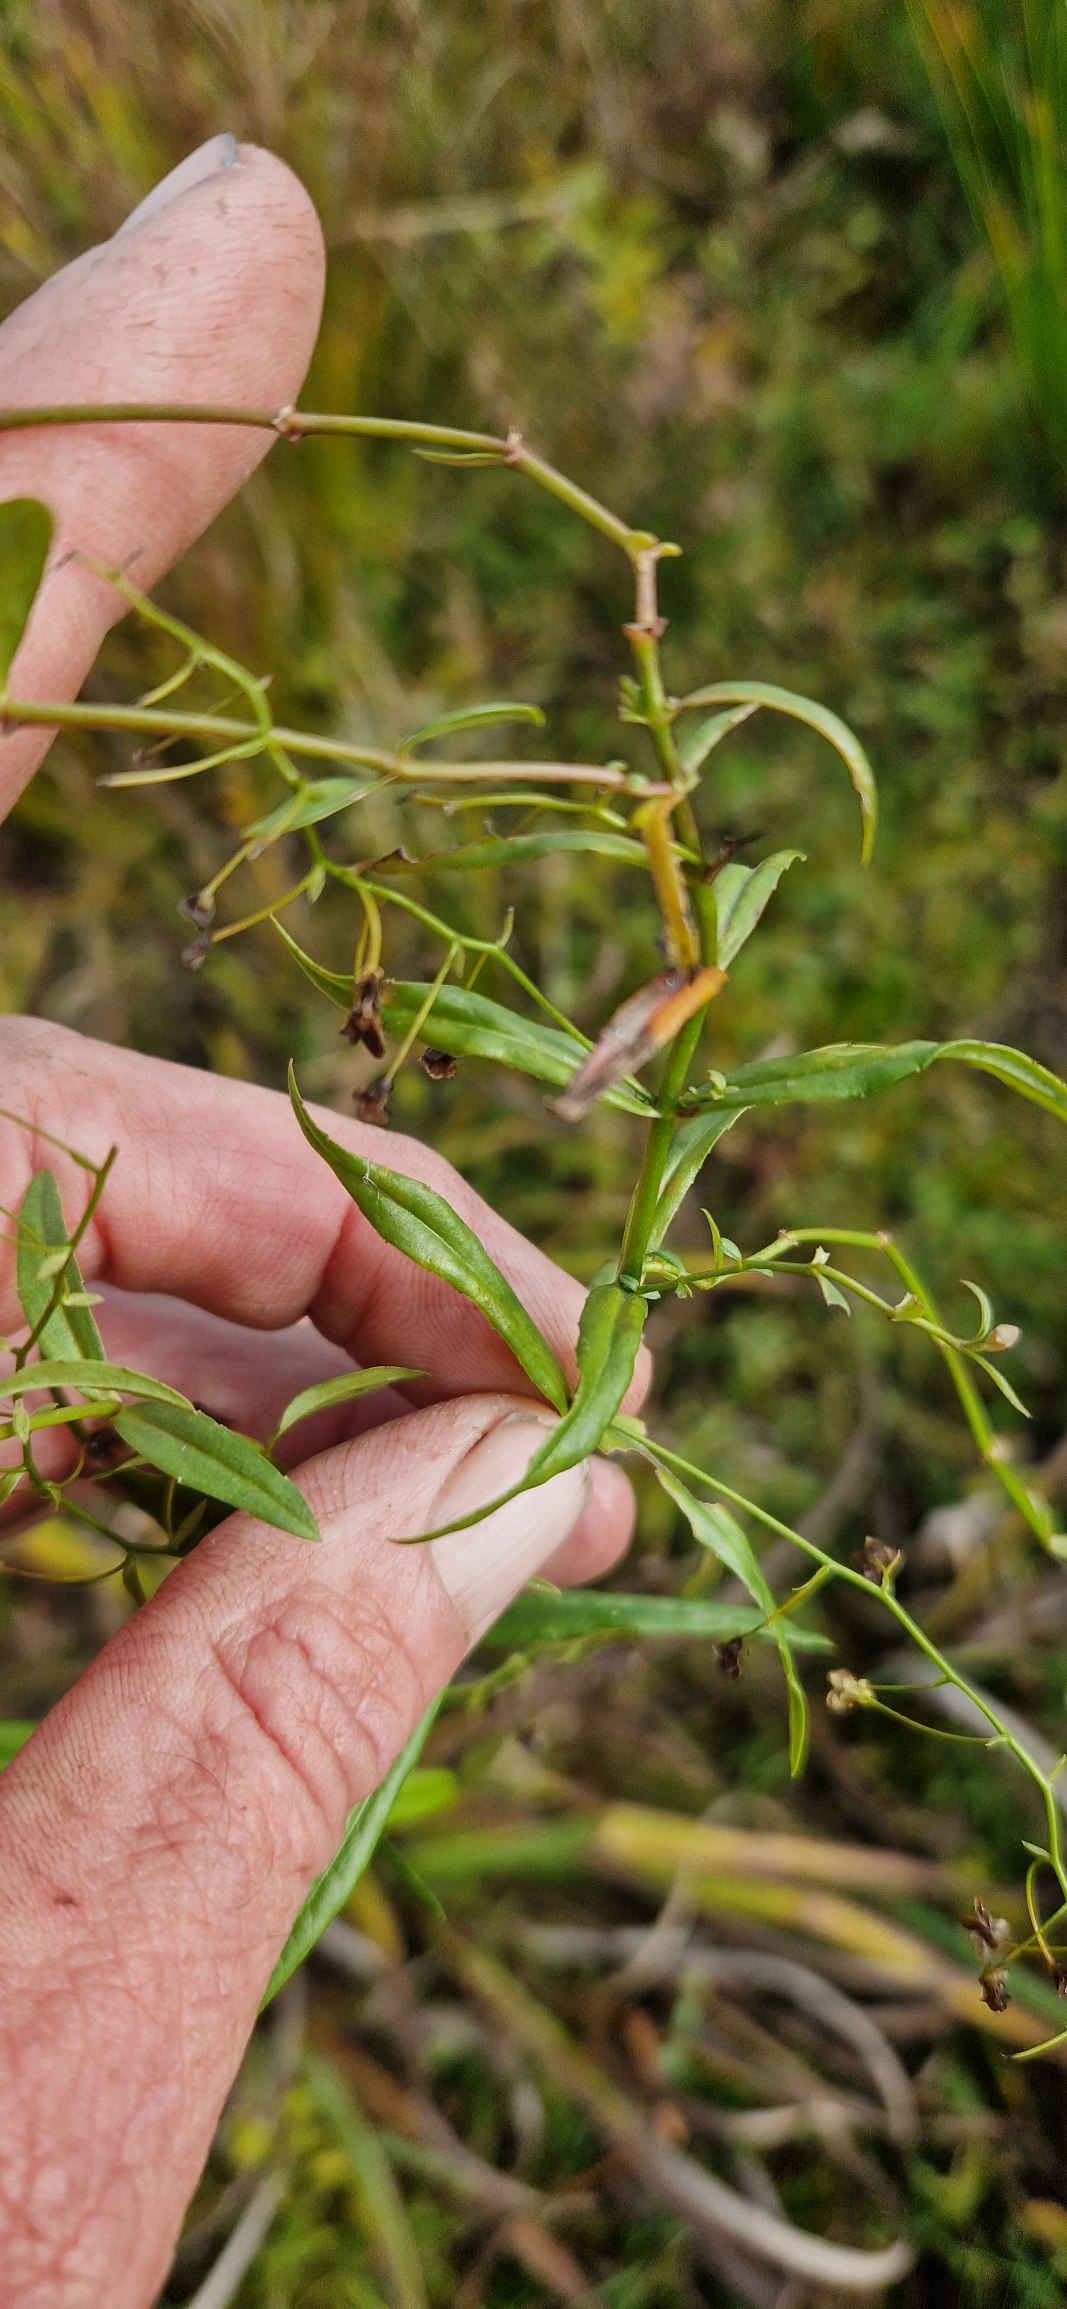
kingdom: Plantae
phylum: Tracheophyta
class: Magnoliopsida
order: Lamiales
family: Plantaginaceae
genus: Veronica
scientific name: Veronica scutellata
